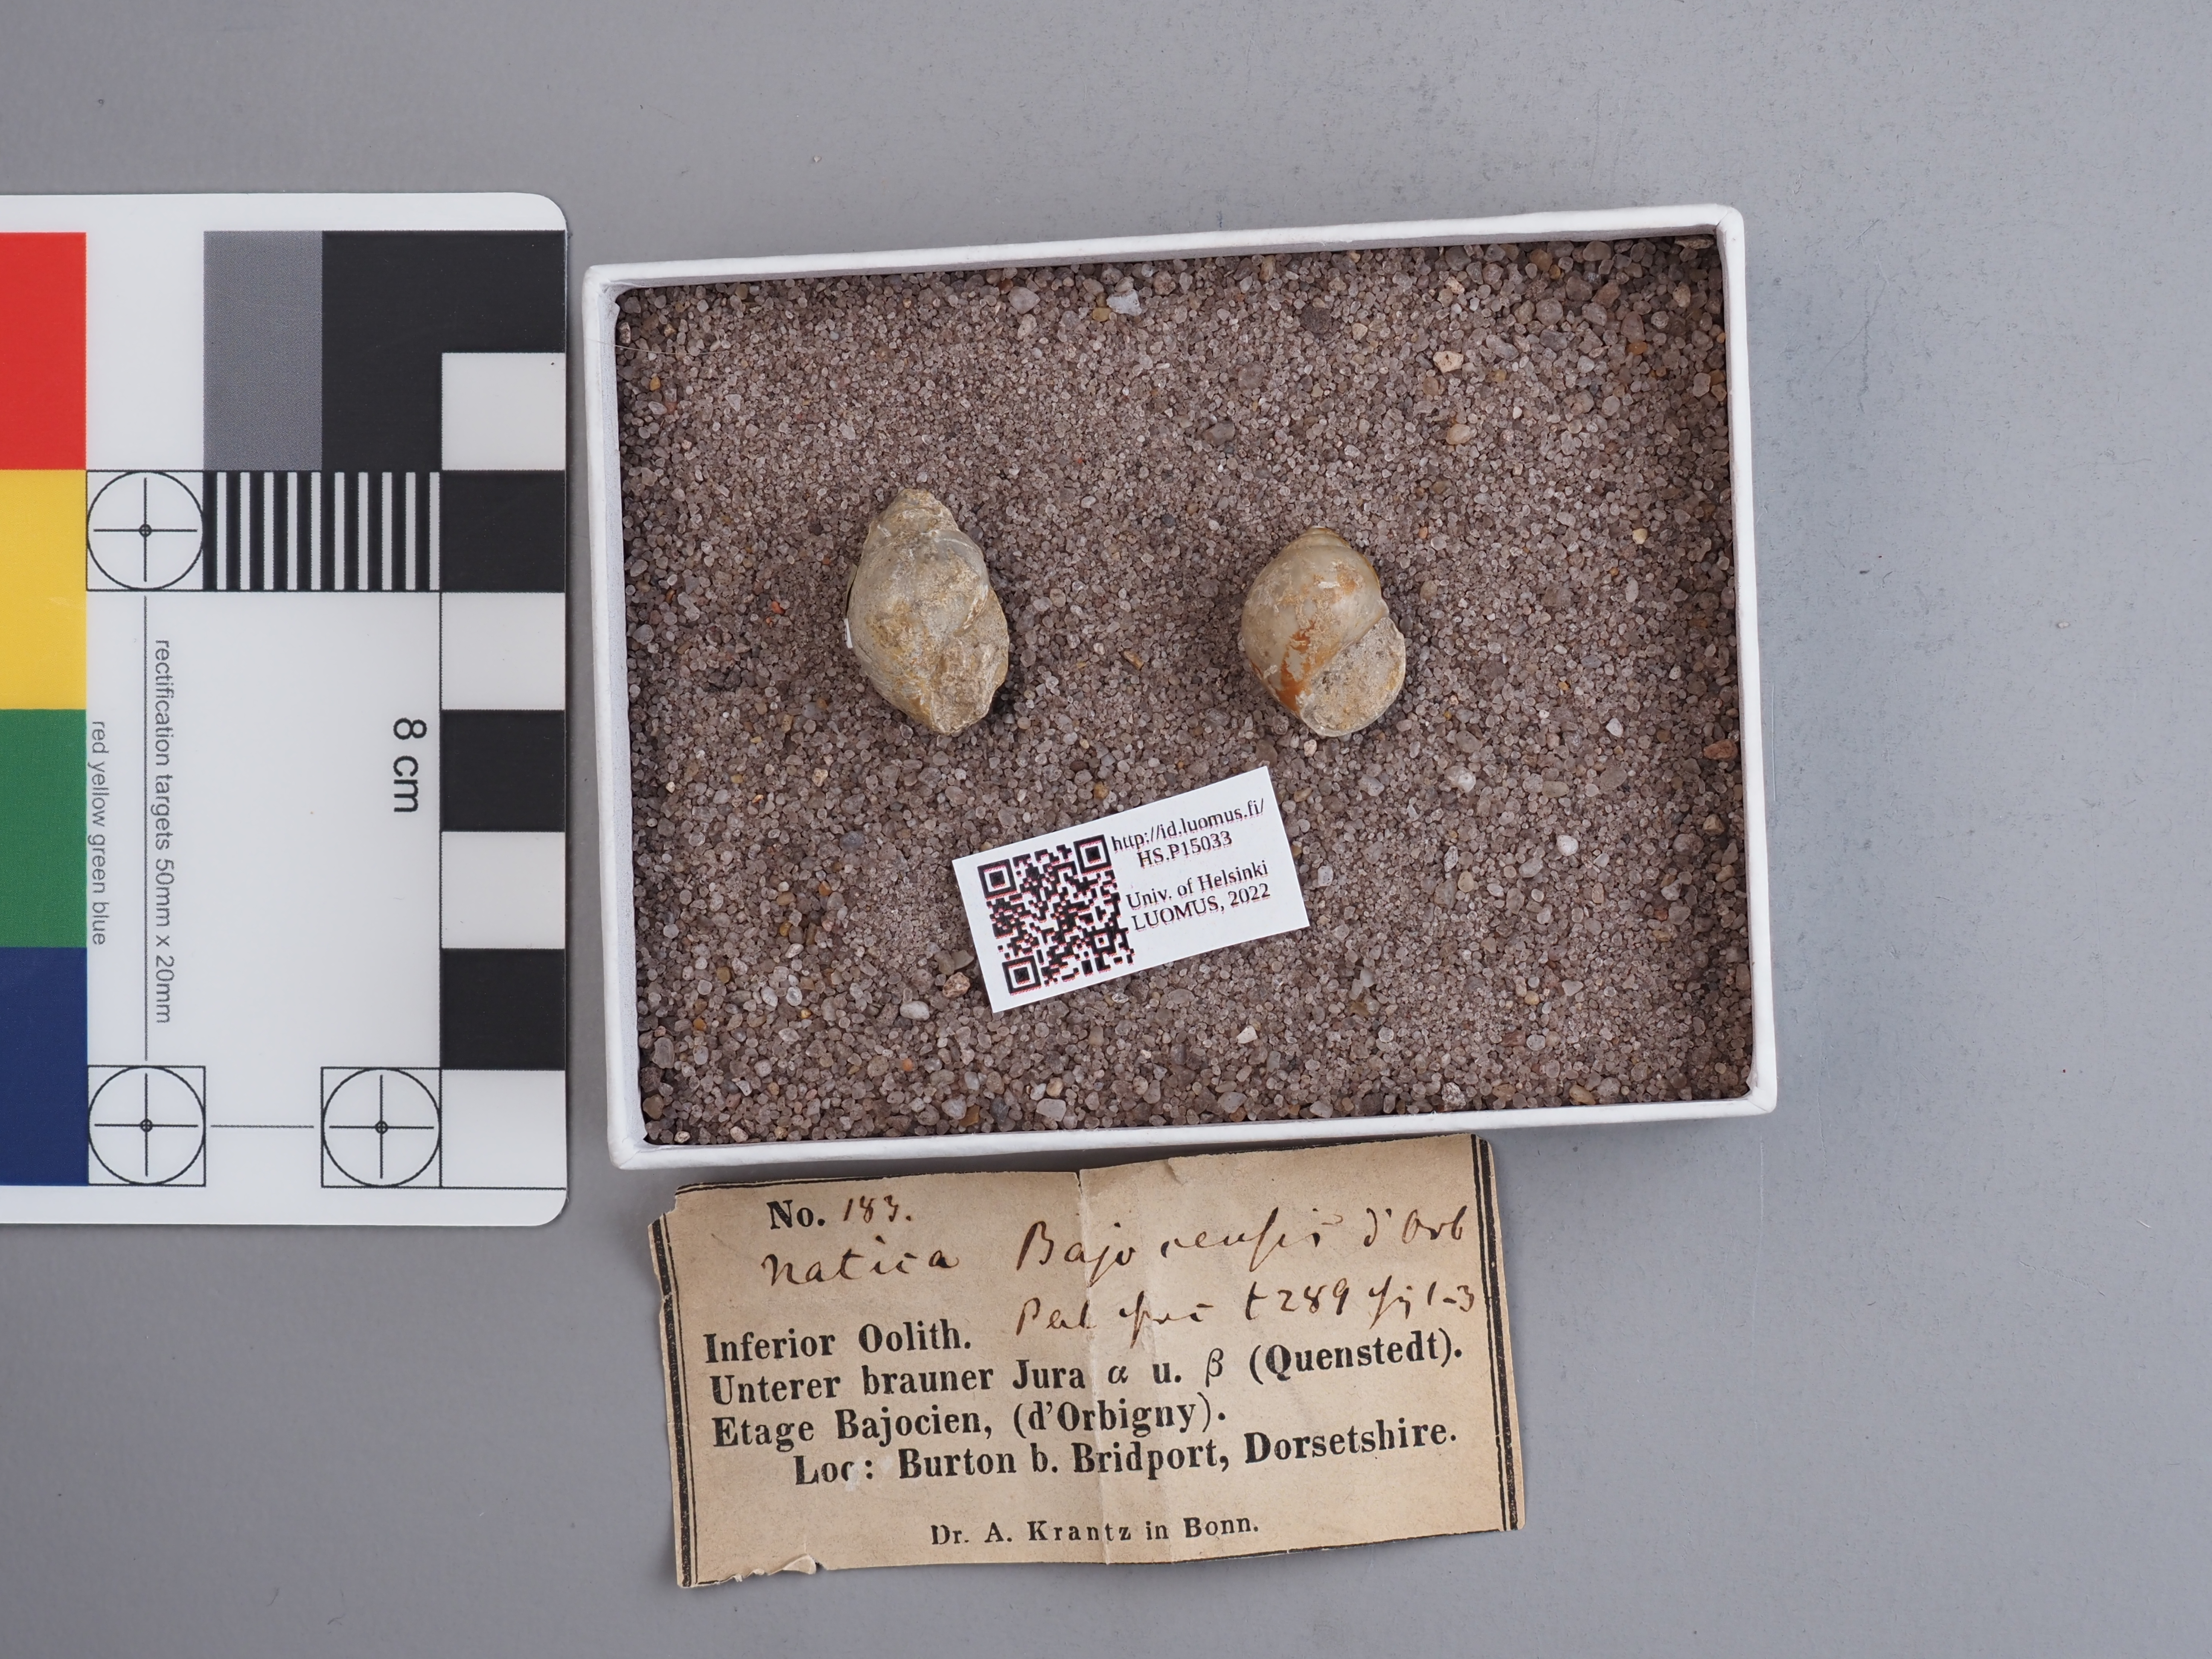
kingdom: Animalia
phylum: Mollusca
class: Gastropoda
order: Littorinimorpha
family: Naticidae
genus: Natica
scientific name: Natica
